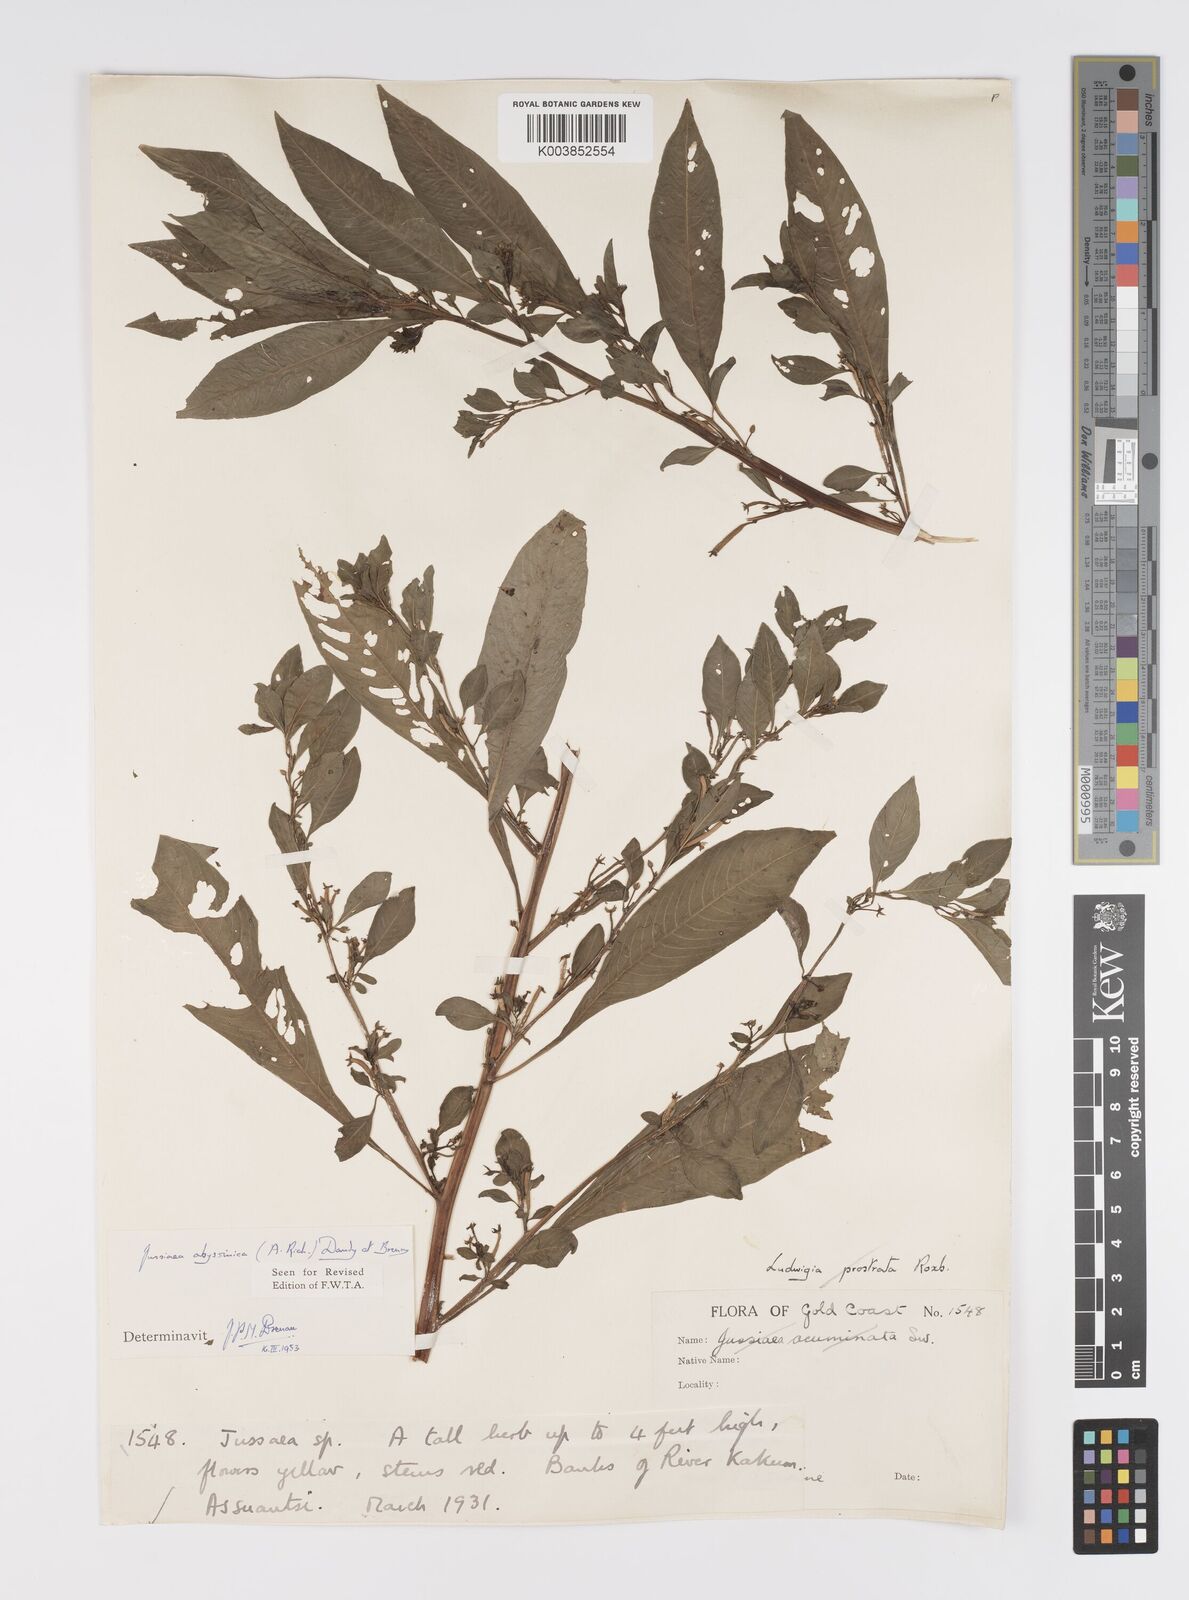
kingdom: Plantae
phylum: Tracheophyta
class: Magnoliopsida
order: Myrtales
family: Onagraceae
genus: Ludwigia
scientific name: Ludwigia abyssinica
